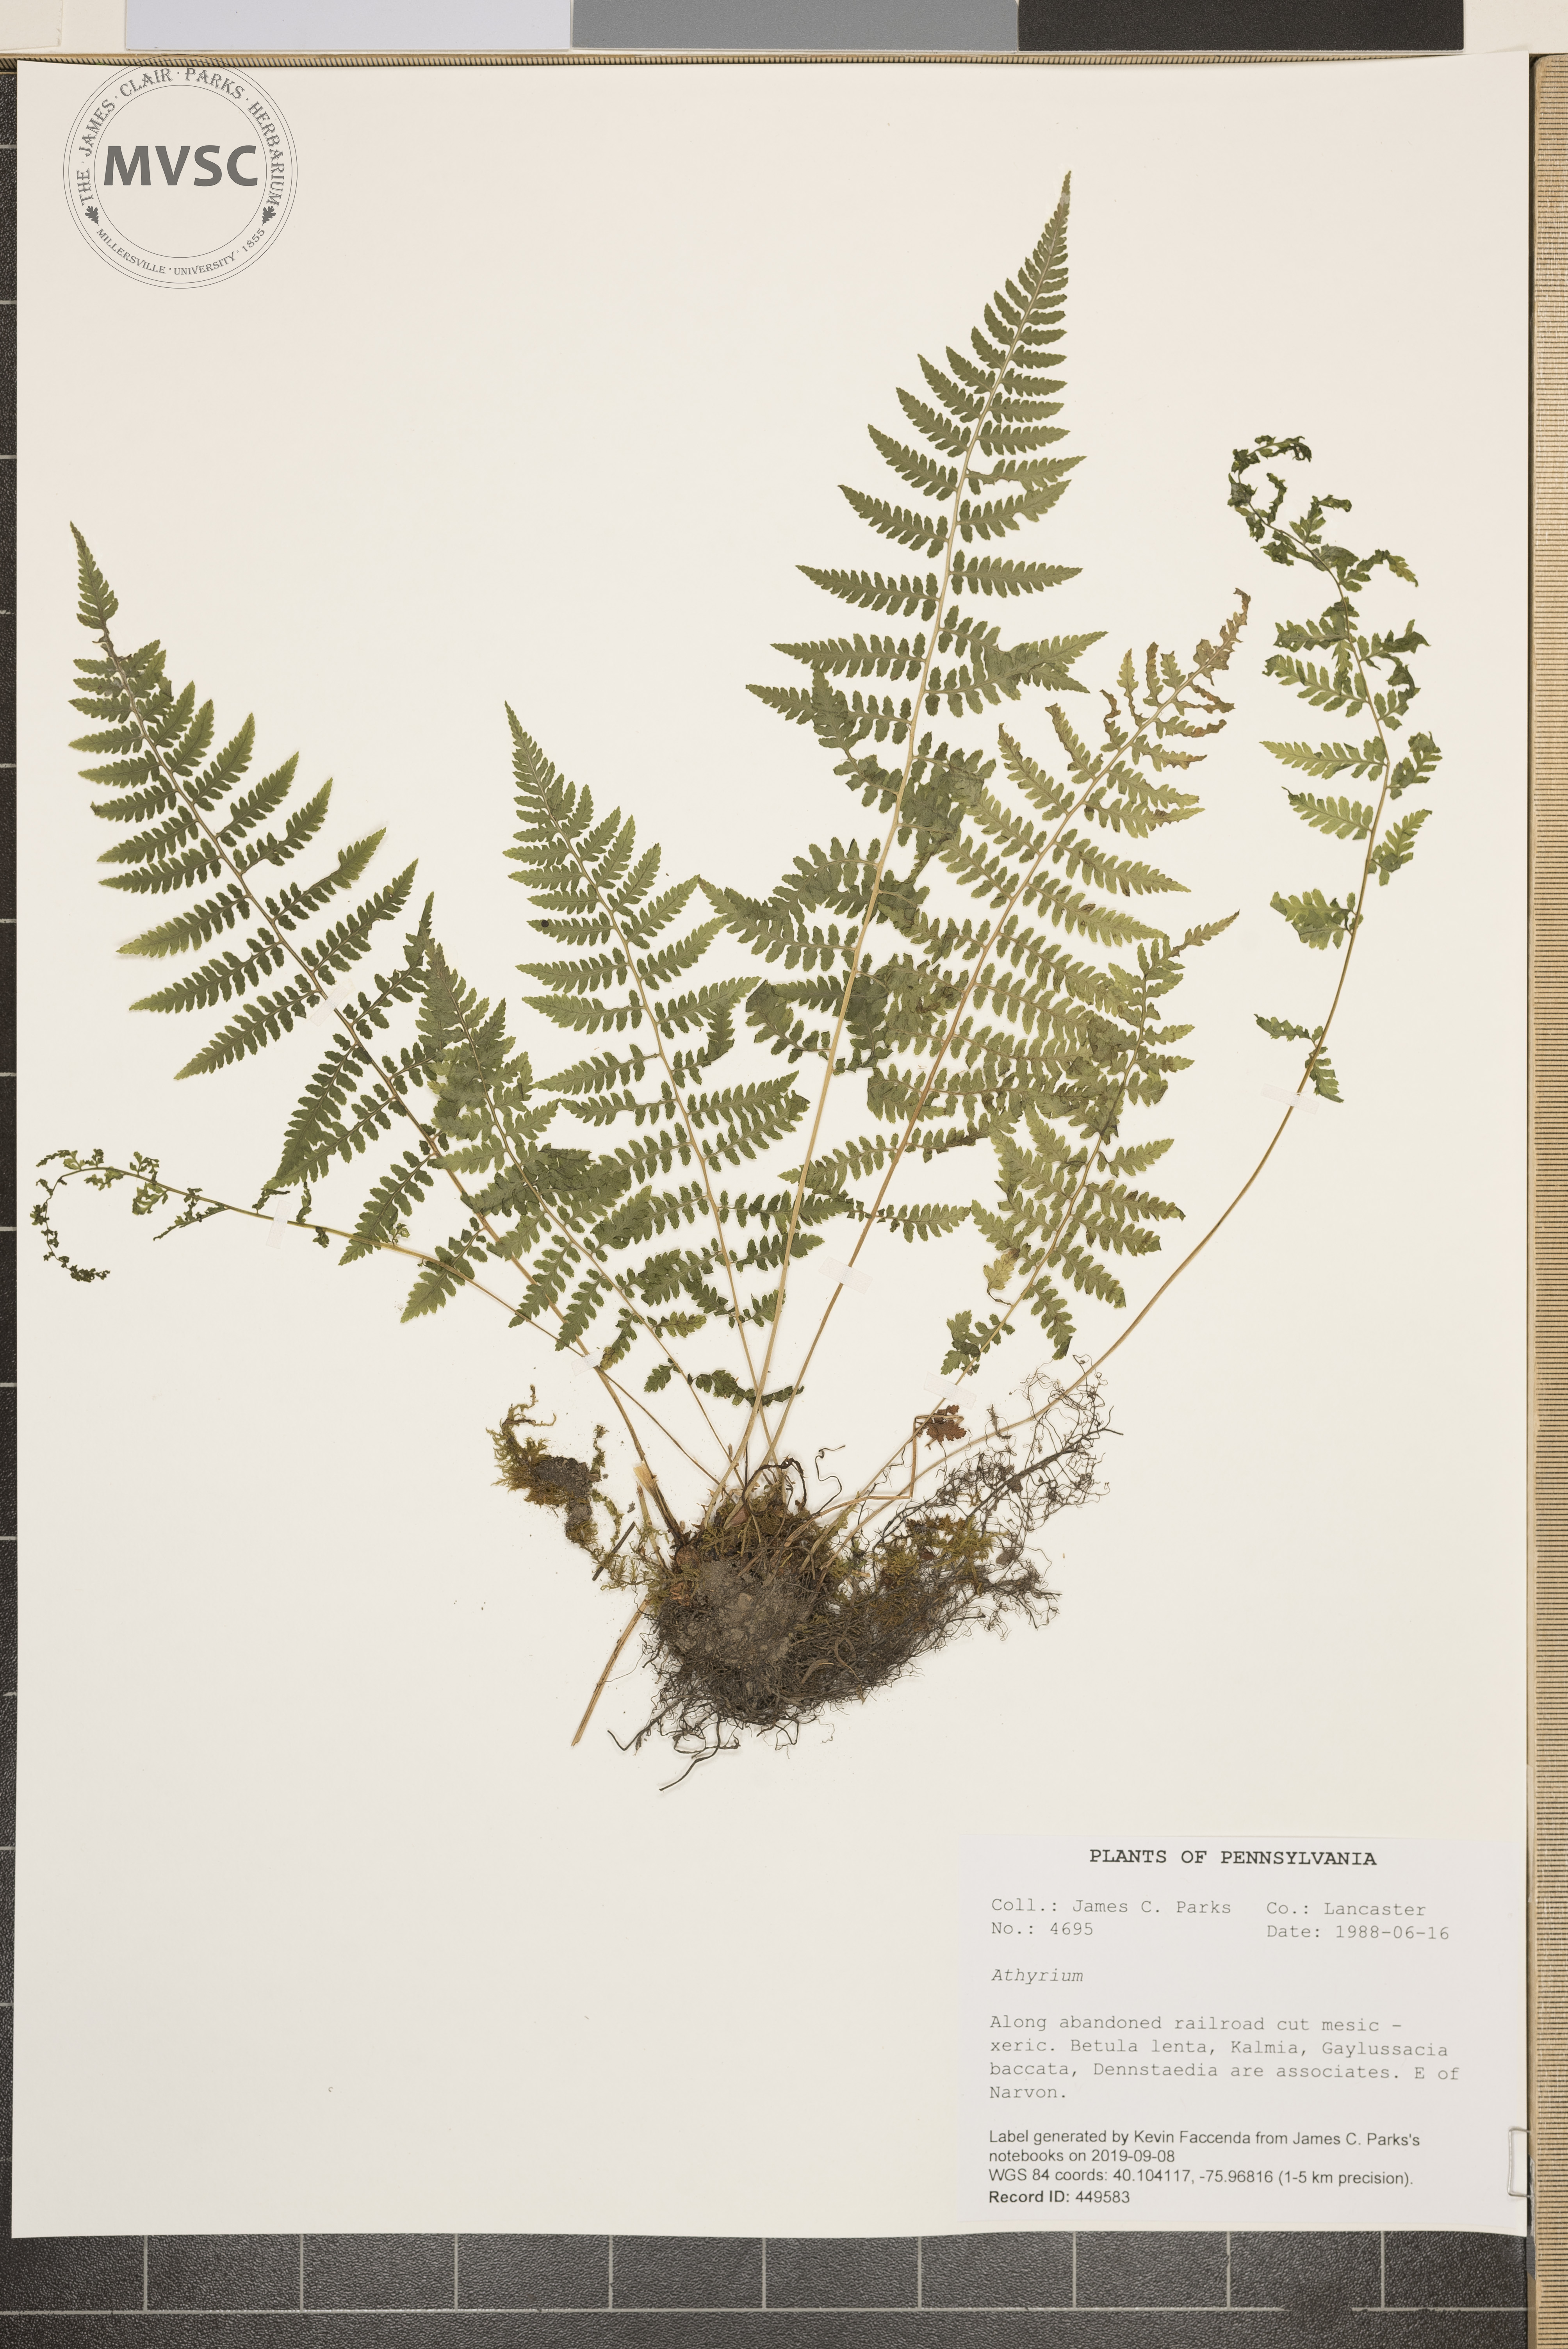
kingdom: Plantae
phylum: Tracheophyta
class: Polypodiopsida
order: Polypodiales
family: Dryopteridaceae
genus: Dryopteris
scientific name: Dryopteris
